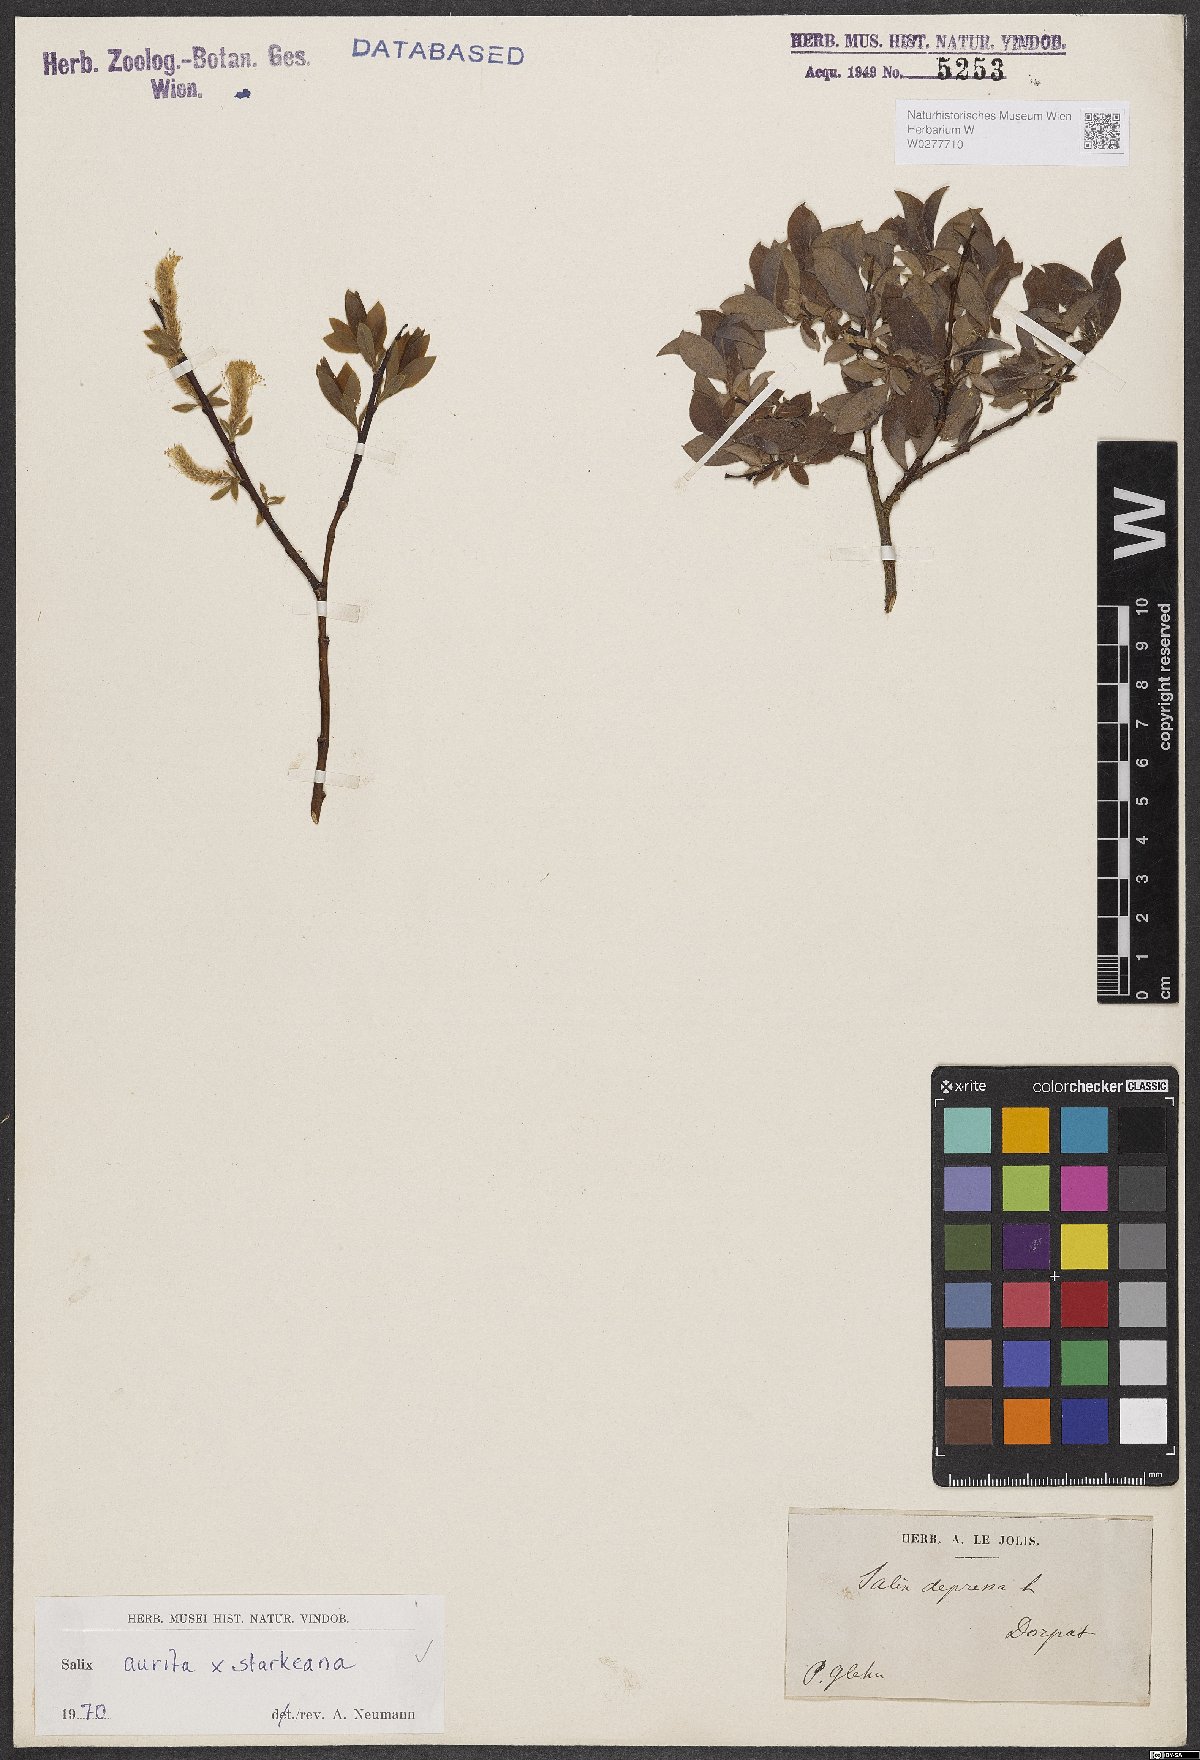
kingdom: Plantae
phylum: Tracheophyta
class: Magnoliopsida
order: Malpighiales
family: Salicaceae
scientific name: Salicaceae
